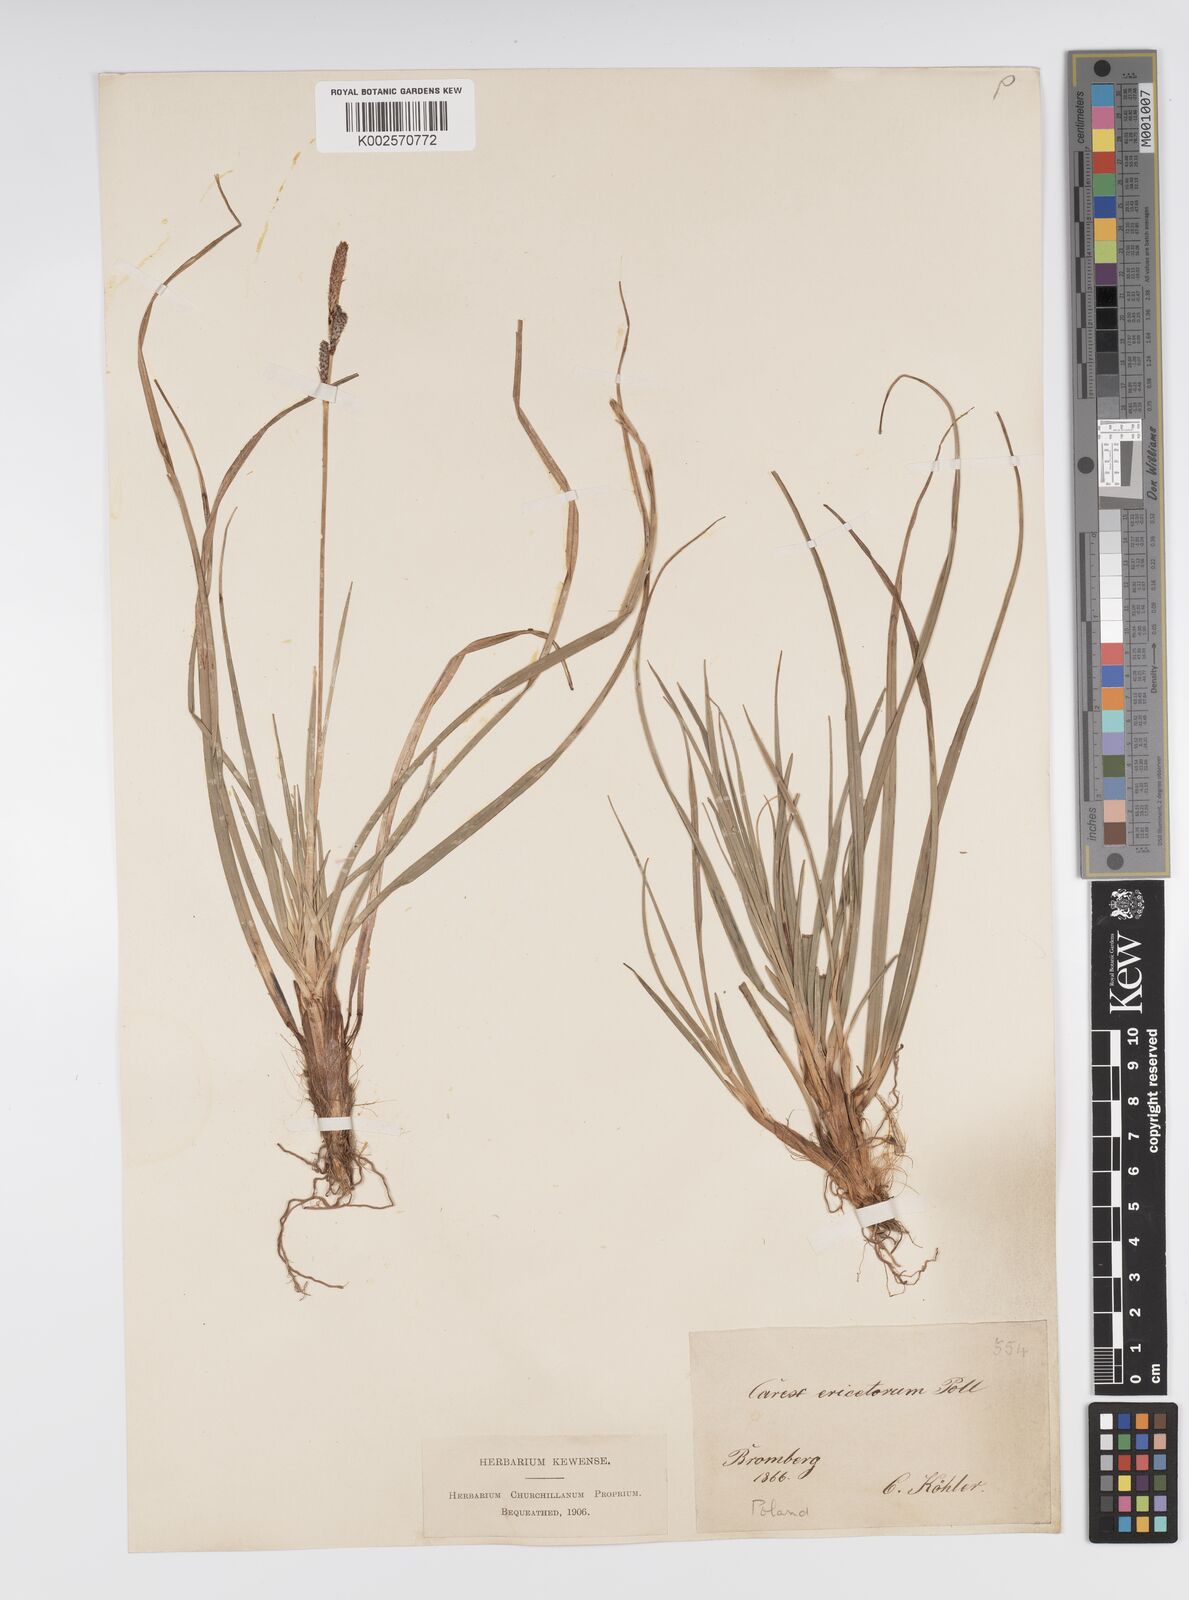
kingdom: Plantae
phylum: Tracheophyta
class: Liliopsida
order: Poales
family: Cyperaceae
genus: Carex
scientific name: Carex ericetorum
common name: Rare spring-sedge
